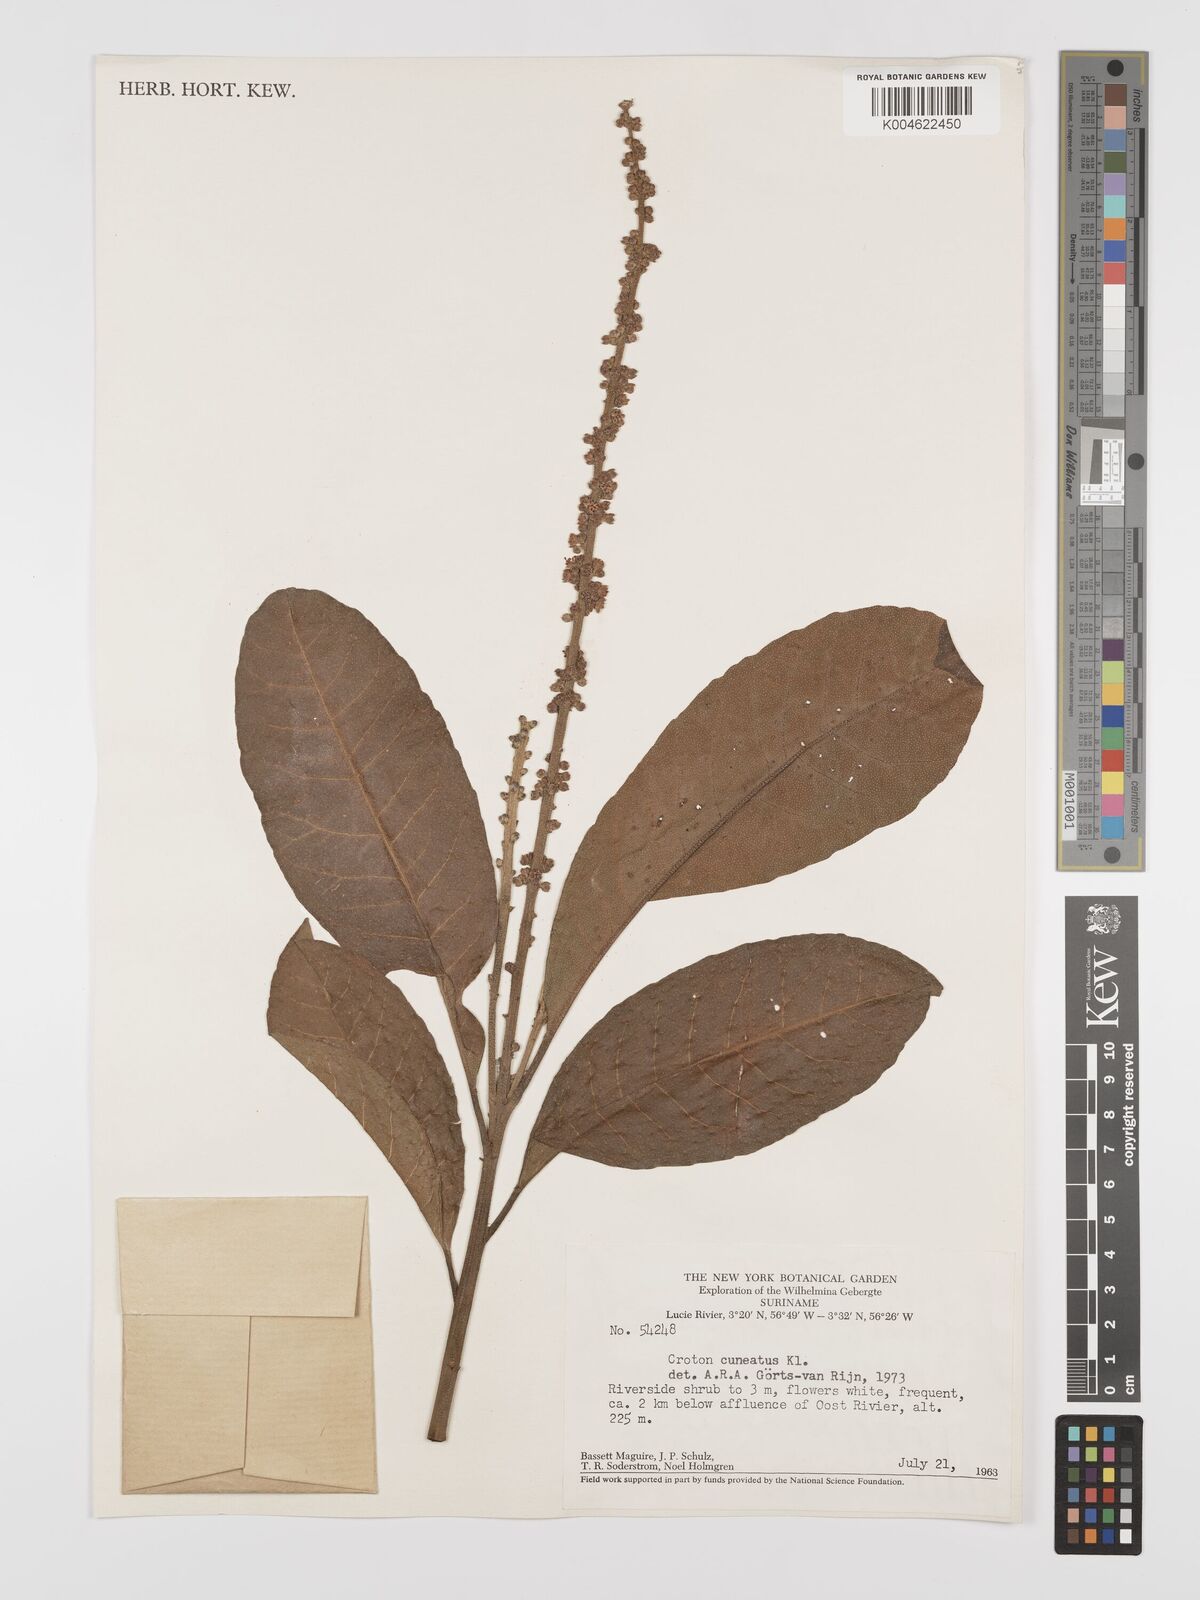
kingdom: Plantae
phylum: Tracheophyta
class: Magnoliopsida
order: Malpighiales
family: Euphorbiaceae
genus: Croton
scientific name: Croton
